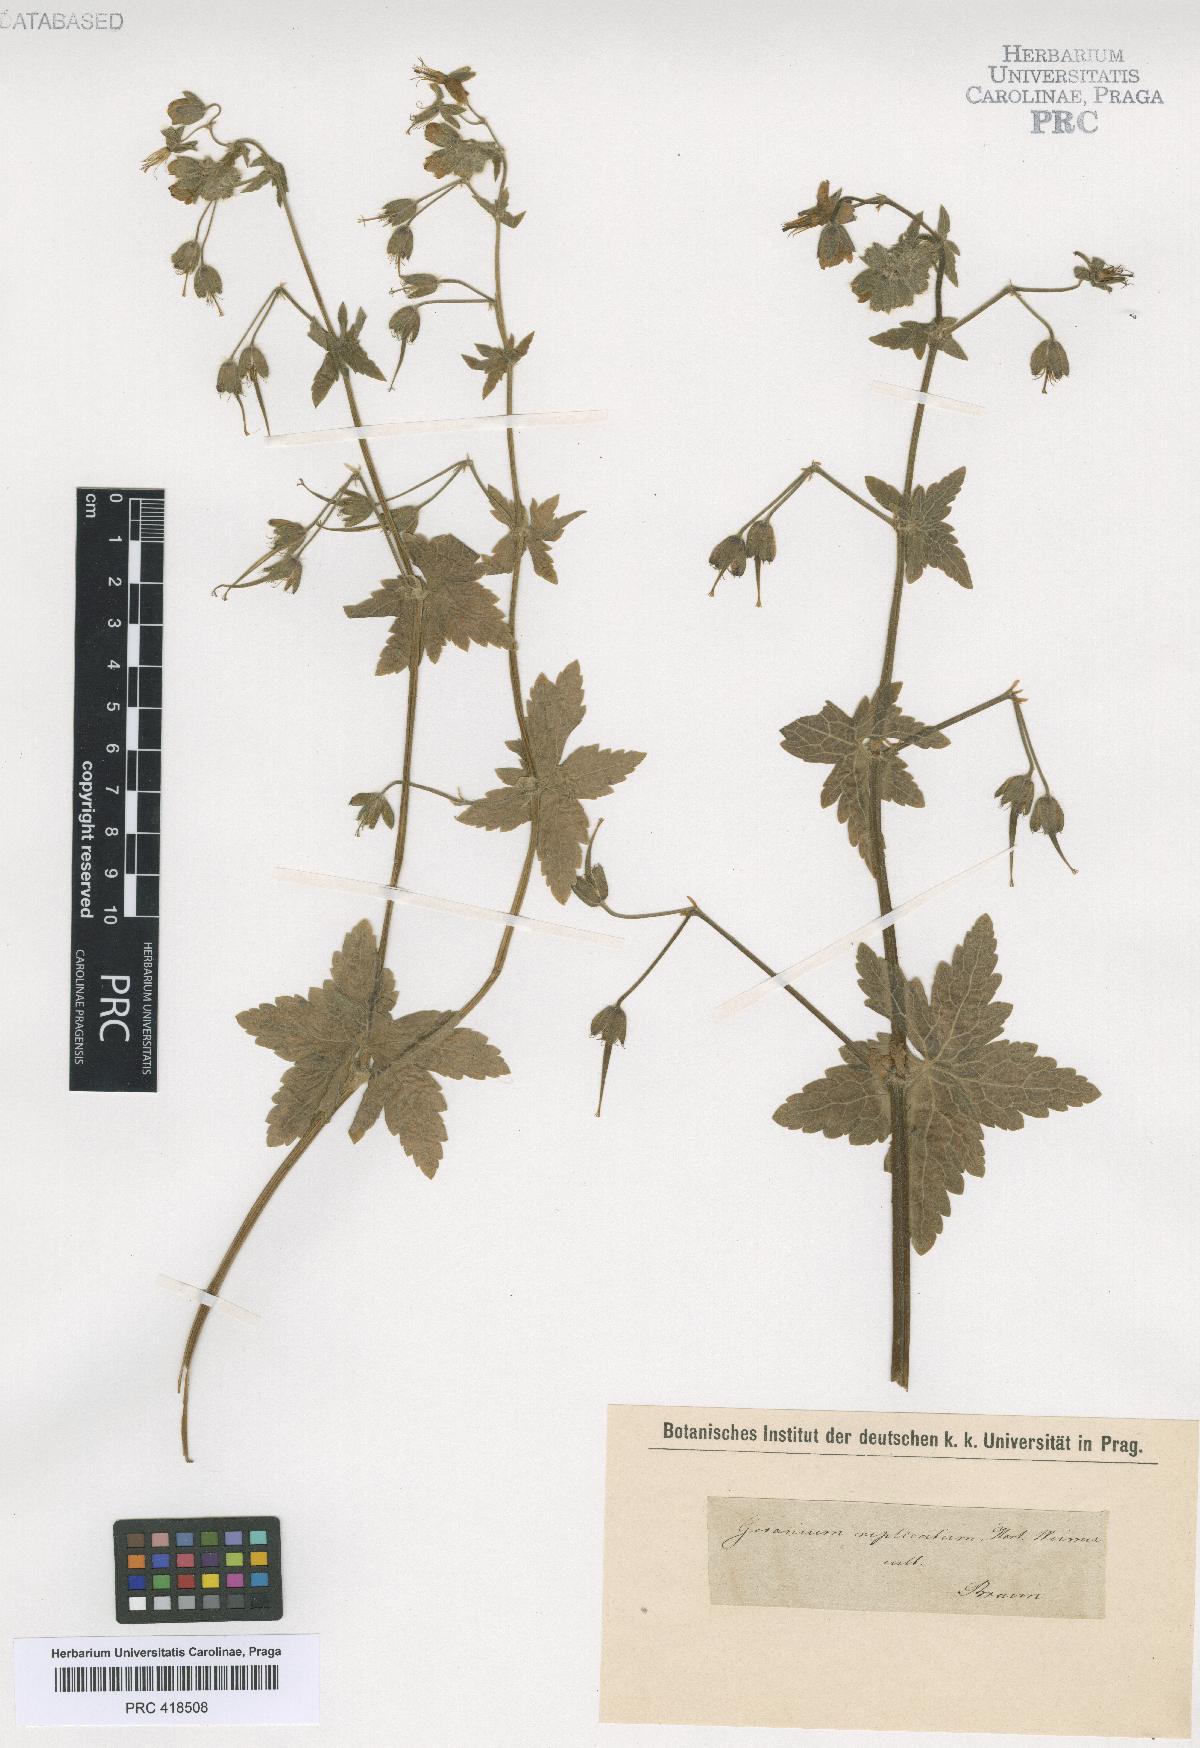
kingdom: Plantae
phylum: Tracheophyta
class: Magnoliopsida
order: Geraniales
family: Geraniaceae
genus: Geranium
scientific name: Geranium reflexum
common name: Reflexed crane's-bill
